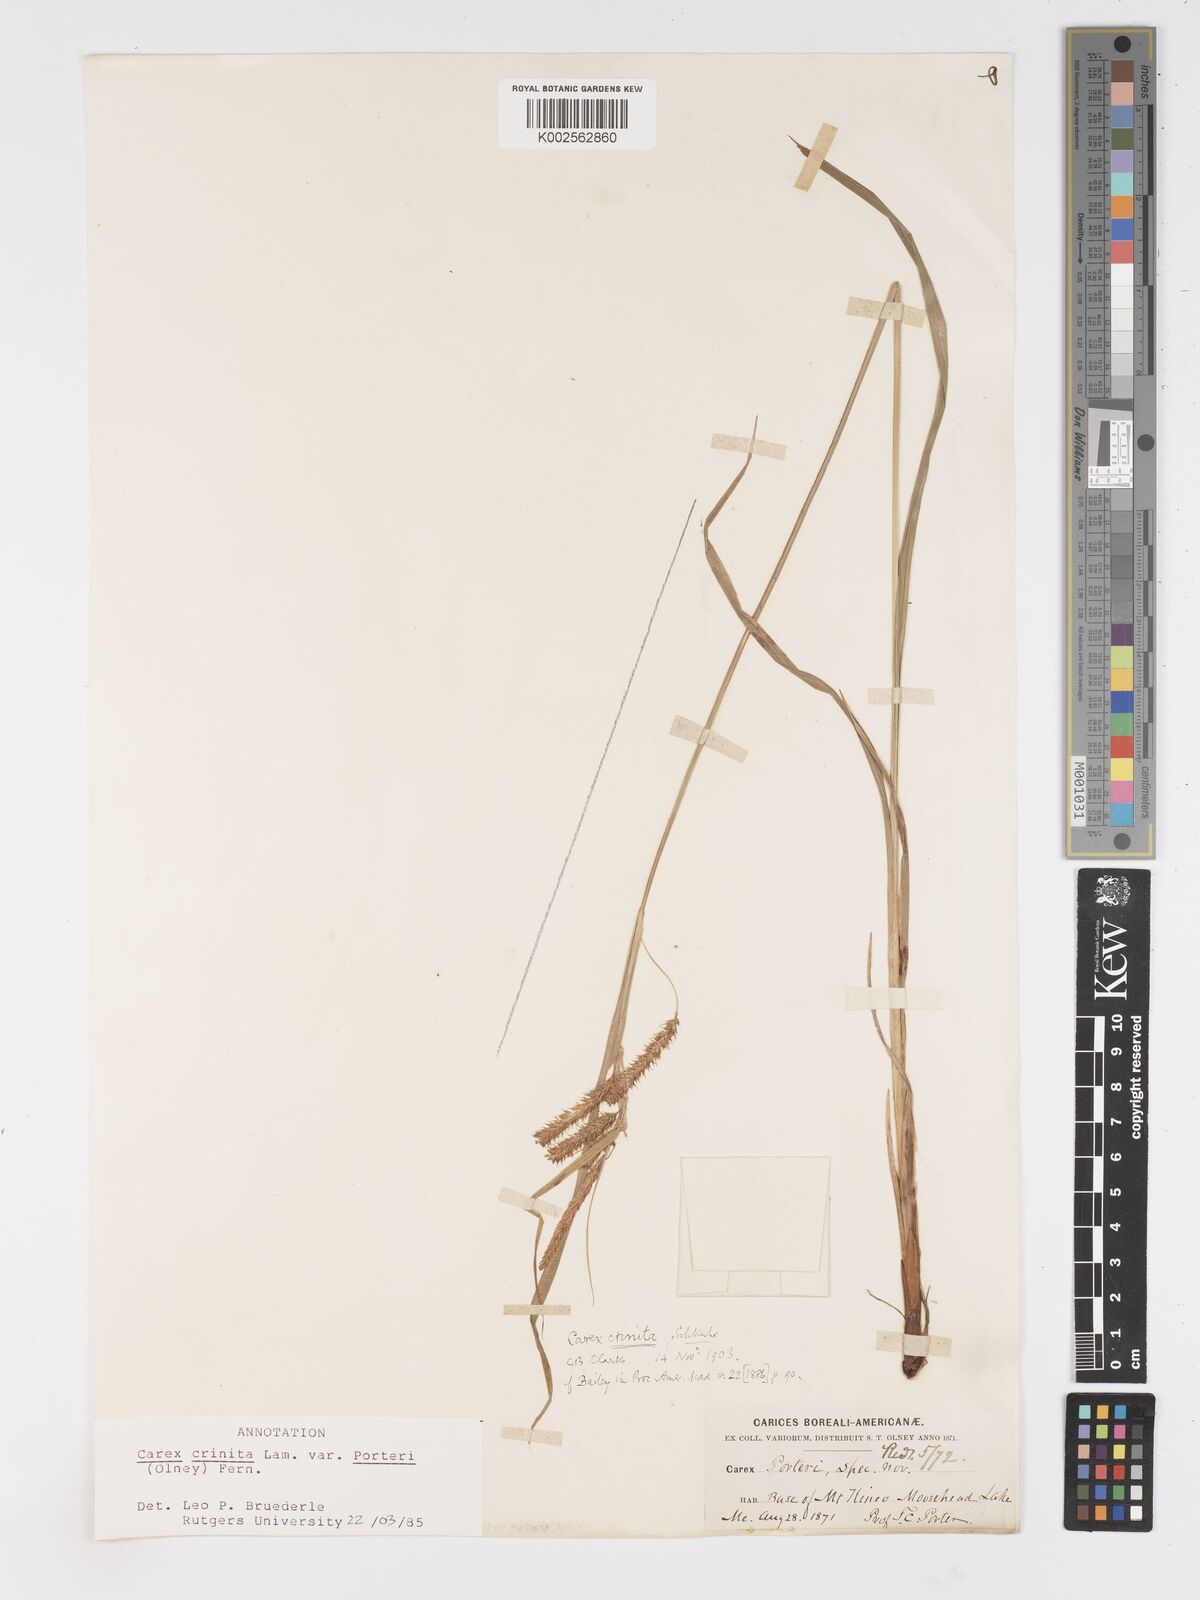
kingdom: Plantae
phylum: Tracheophyta
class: Liliopsida
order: Poales
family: Cyperaceae
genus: Carex
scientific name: Carex crinita
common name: Fringed sedge
